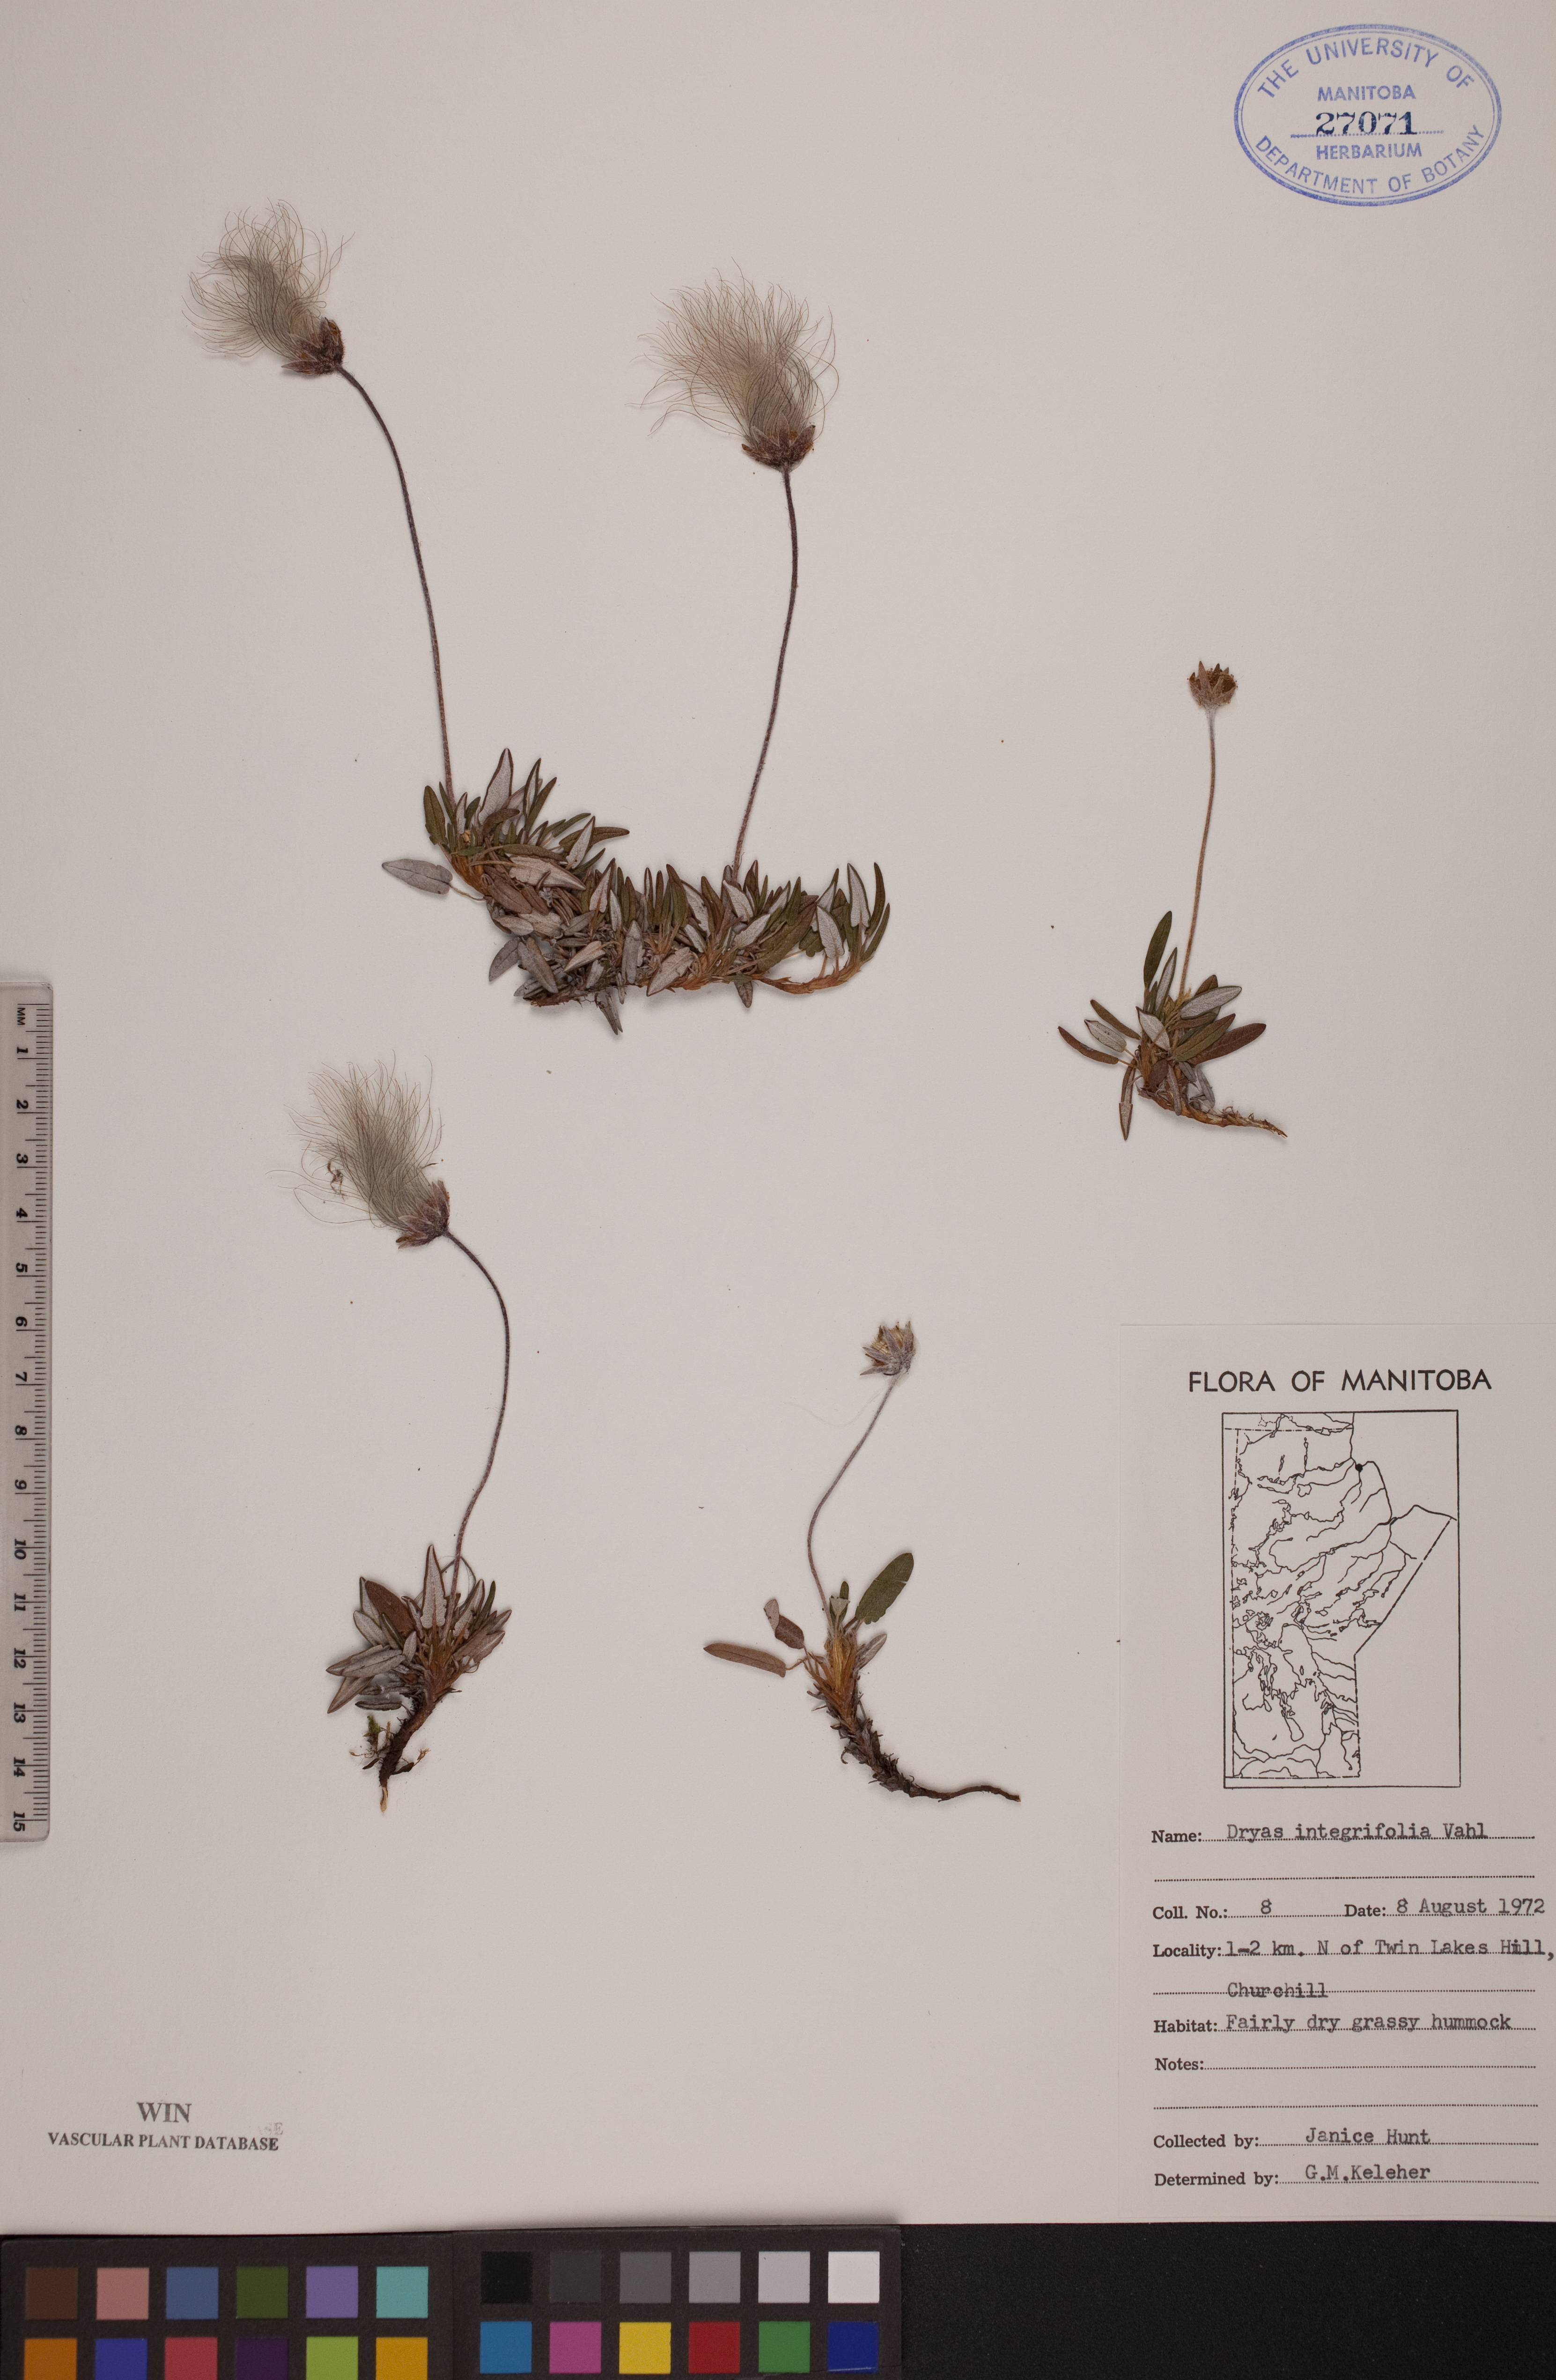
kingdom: Plantae
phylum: Tracheophyta
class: Magnoliopsida
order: Rosales
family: Rosaceae
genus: Dryas
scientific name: Dryas integrifolia
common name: Entire-leaved mountain avens
